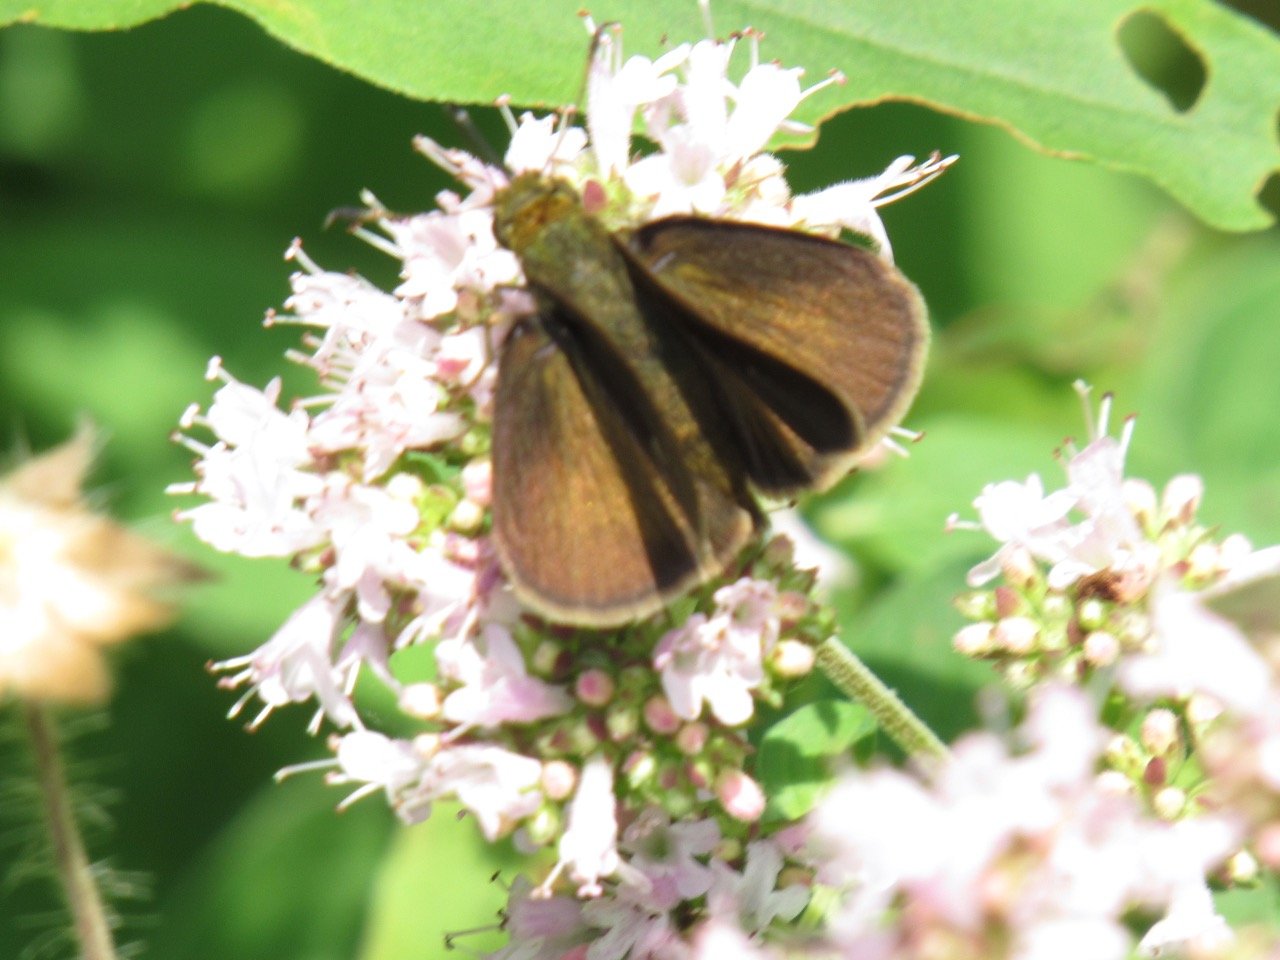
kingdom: Animalia
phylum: Arthropoda
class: Insecta
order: Lepidoptera
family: Hesperiidae
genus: Euphyes
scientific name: Euphyes vestris
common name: Dun Skipper
